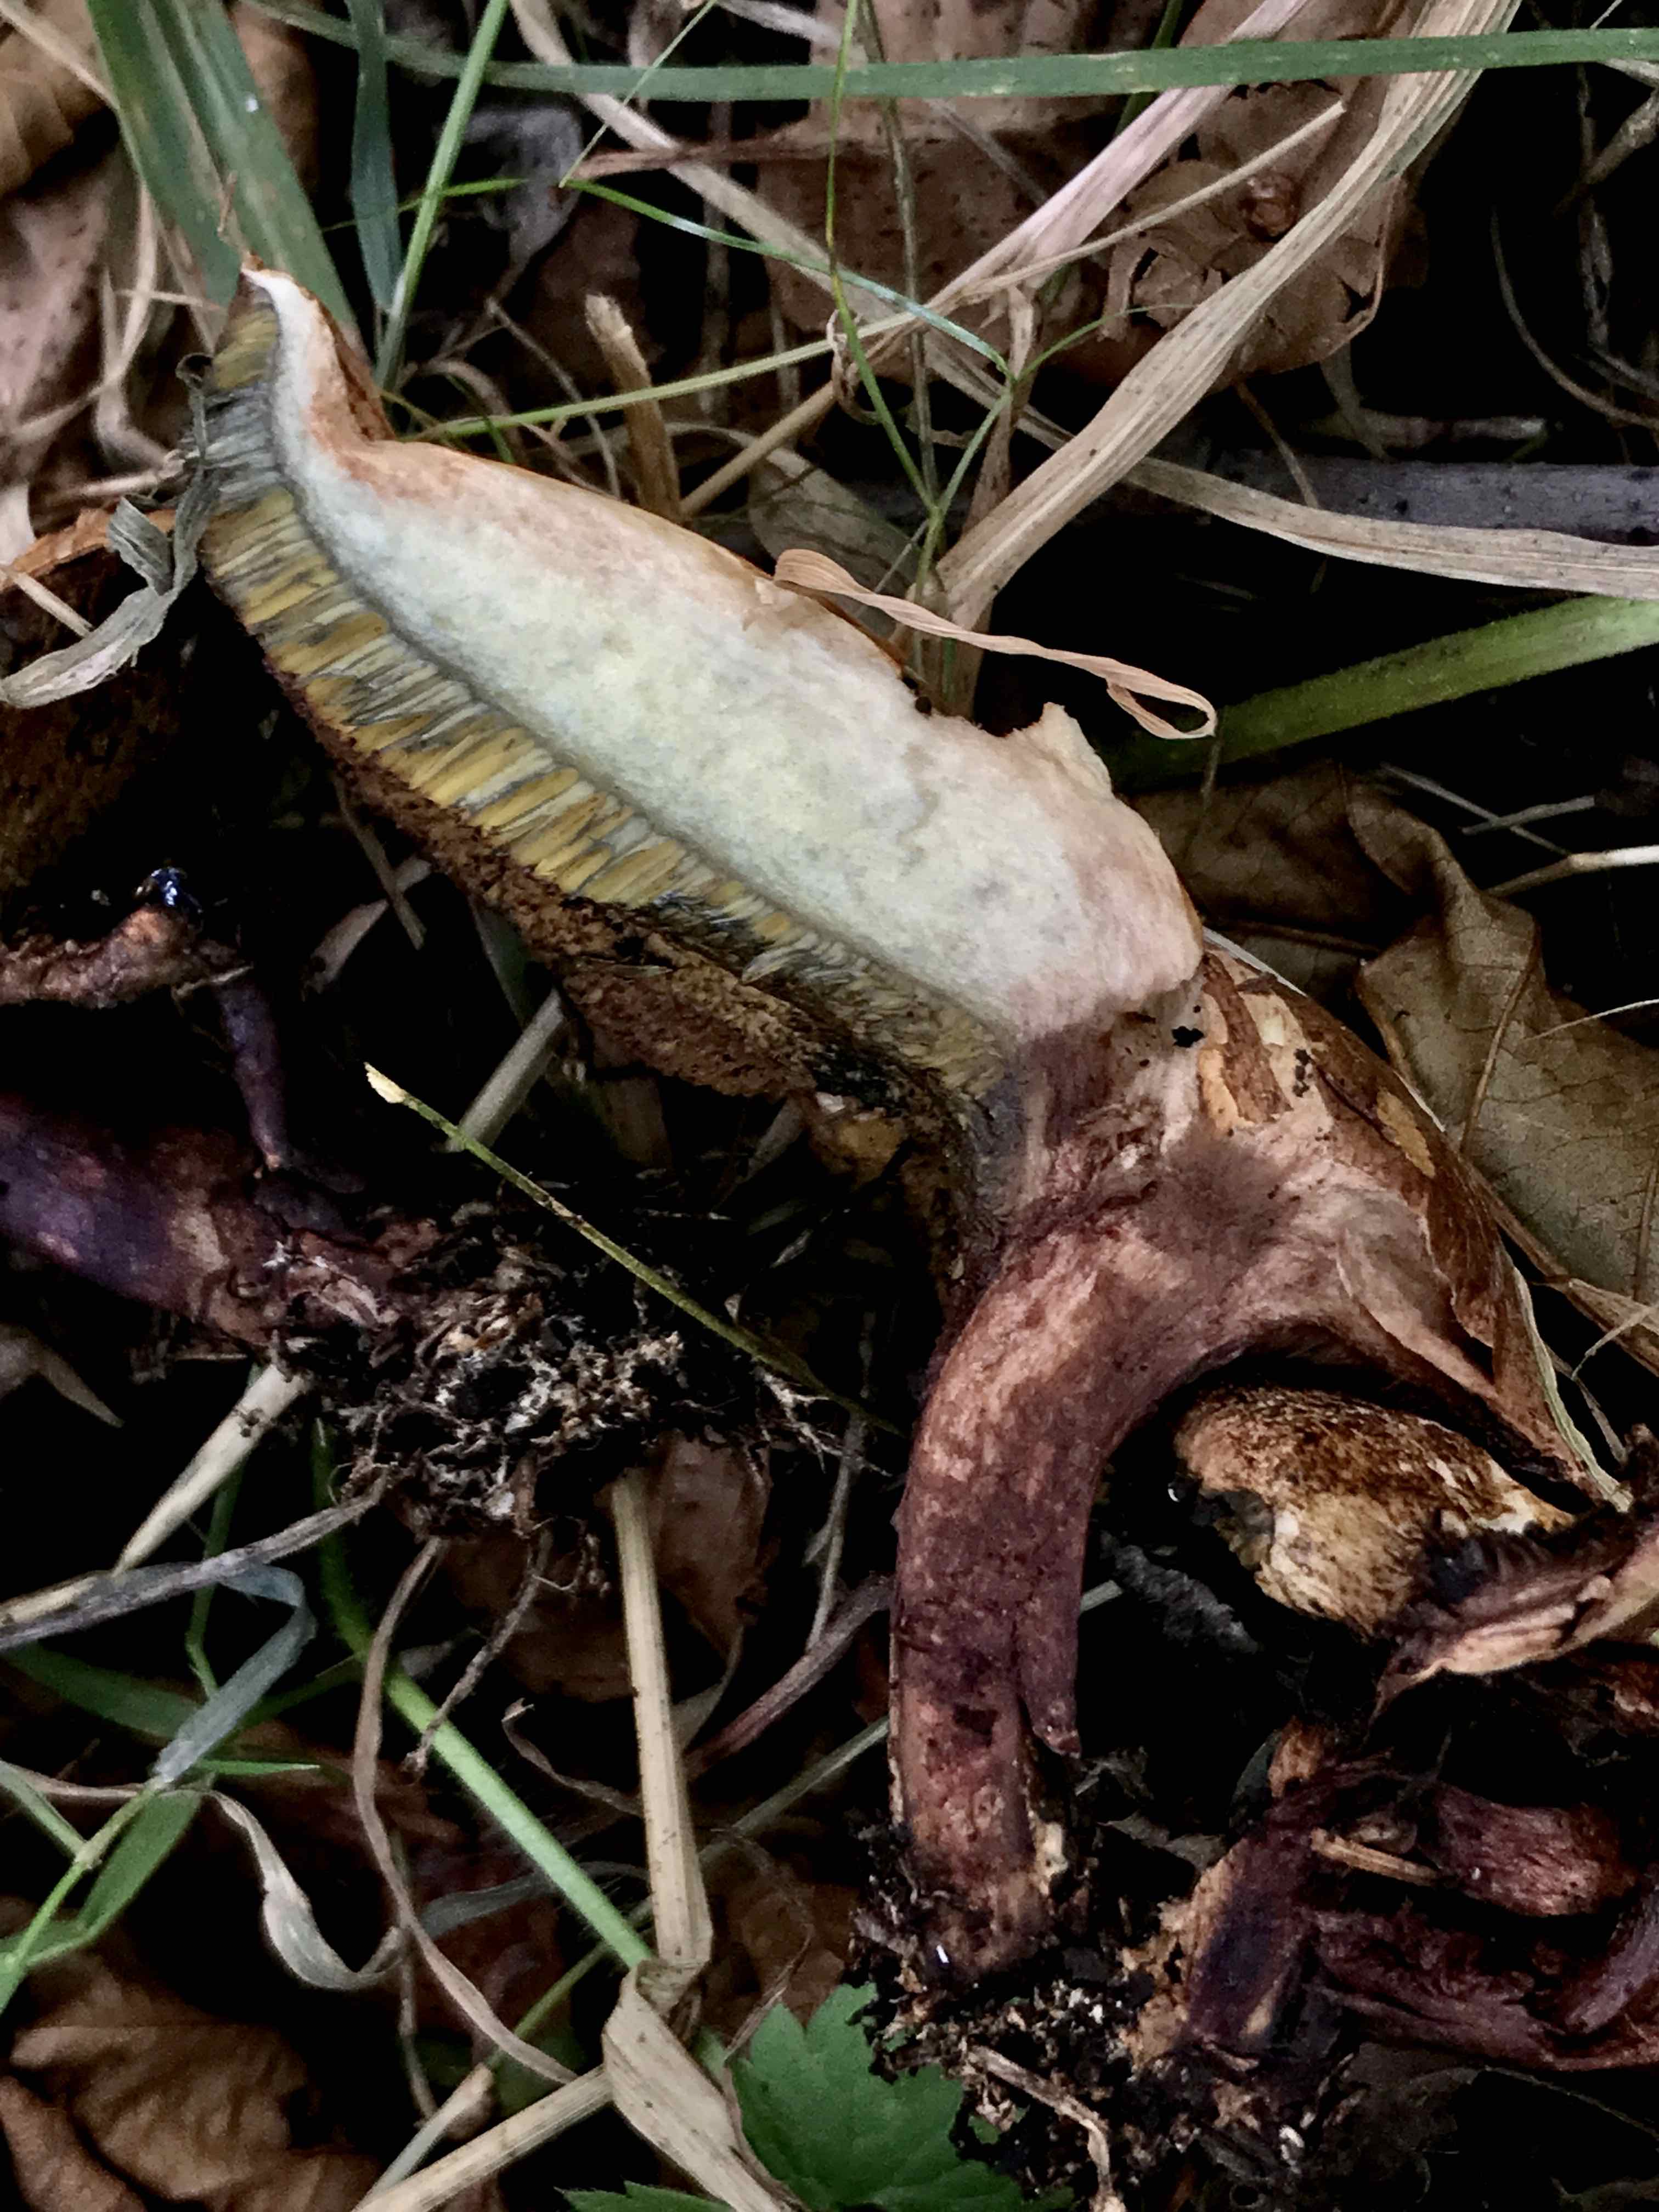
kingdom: Fungi
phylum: Basidiomycota
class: Agaricomycetes
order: Boletales
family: Boletaceae
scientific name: Boletaceae
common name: rørhatfamilien
